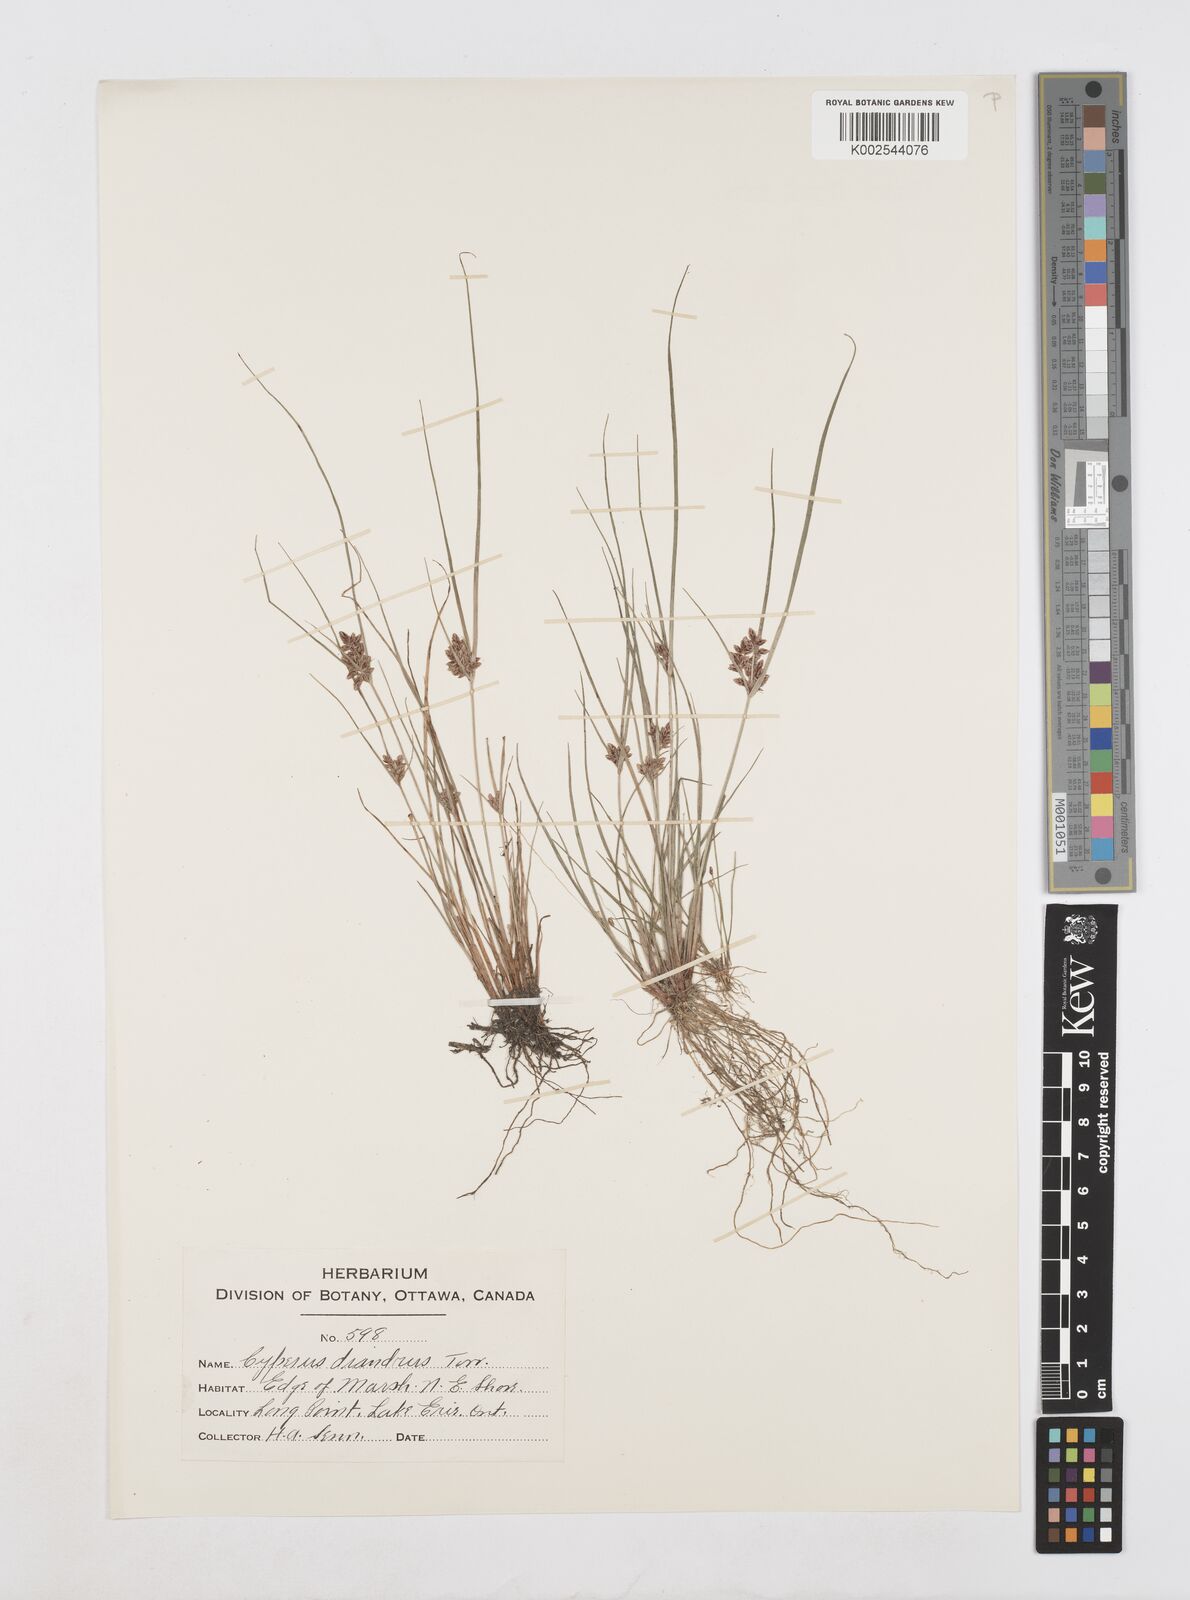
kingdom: Plantae
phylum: Tracheophyta
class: Liliopsida
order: Poales
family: Cyperaceae
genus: Cyperus
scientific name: Cyperus diandrus
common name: Low cyperus
